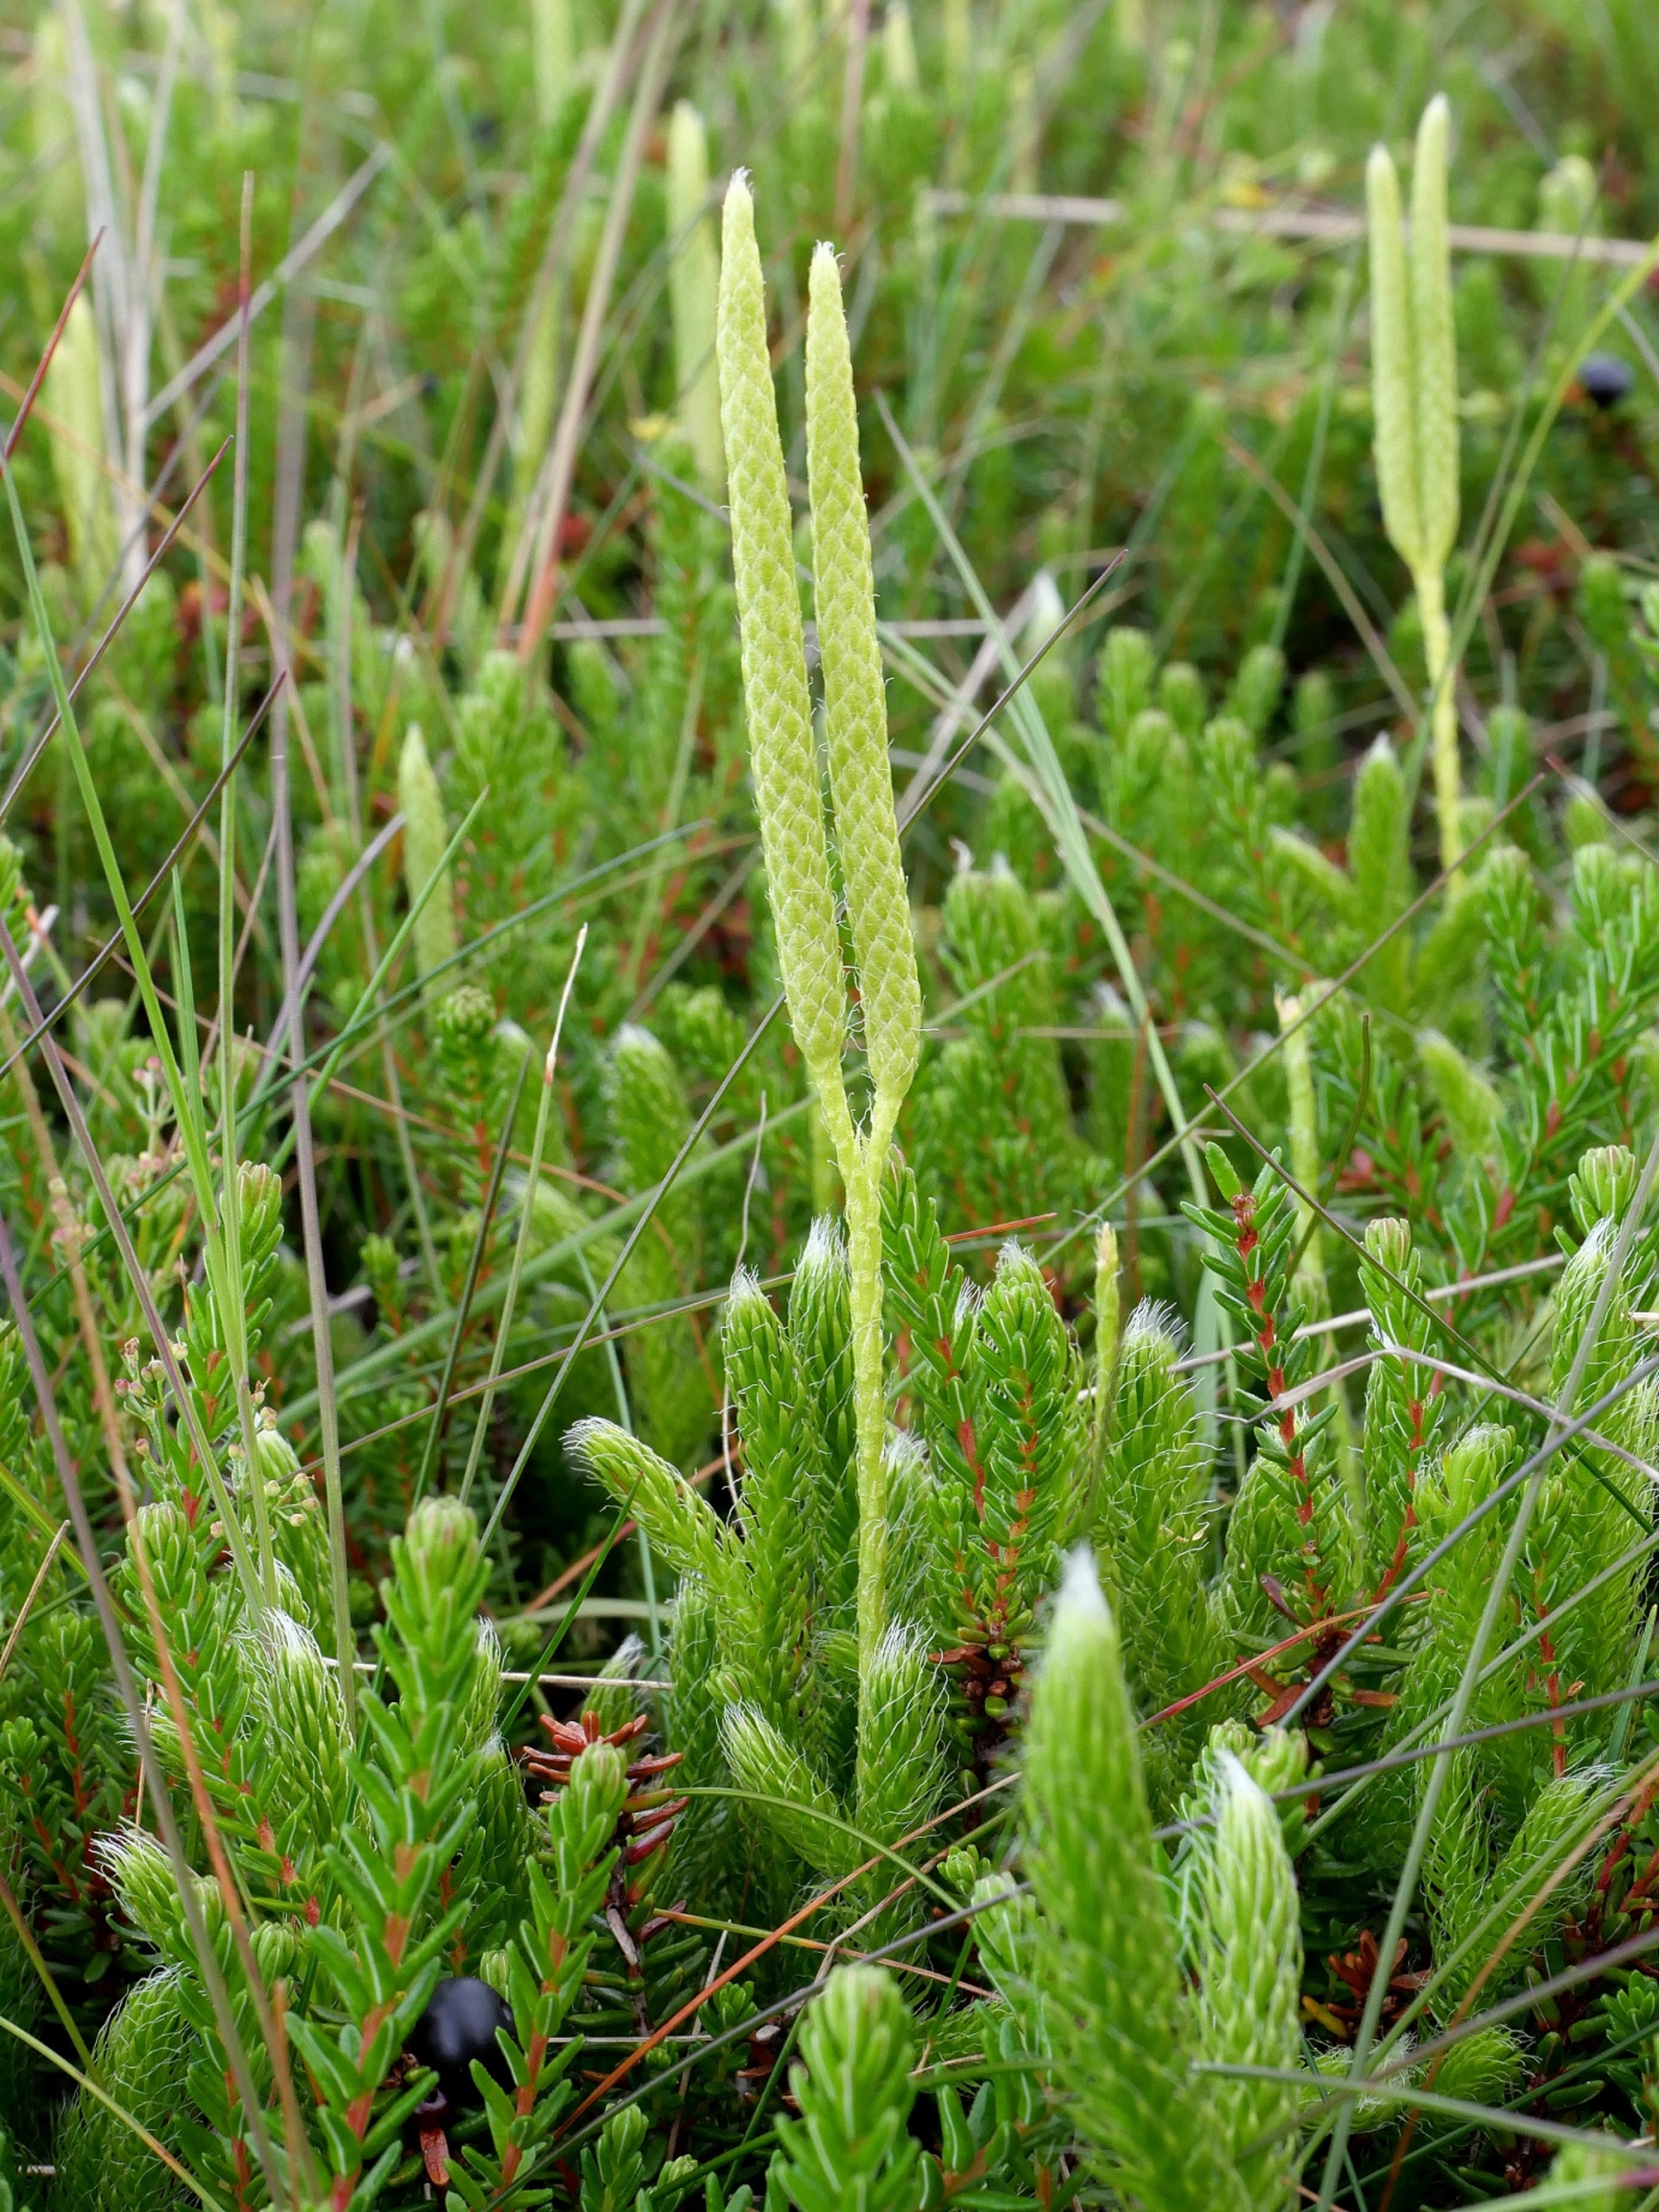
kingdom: Plantae
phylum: Tracheophyta
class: Lycopodiopsida
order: Lycopodiales
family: Lycopodiaceae
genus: Lycopodium
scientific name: Lycopodium clavatum
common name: Almindelig ulvefod
